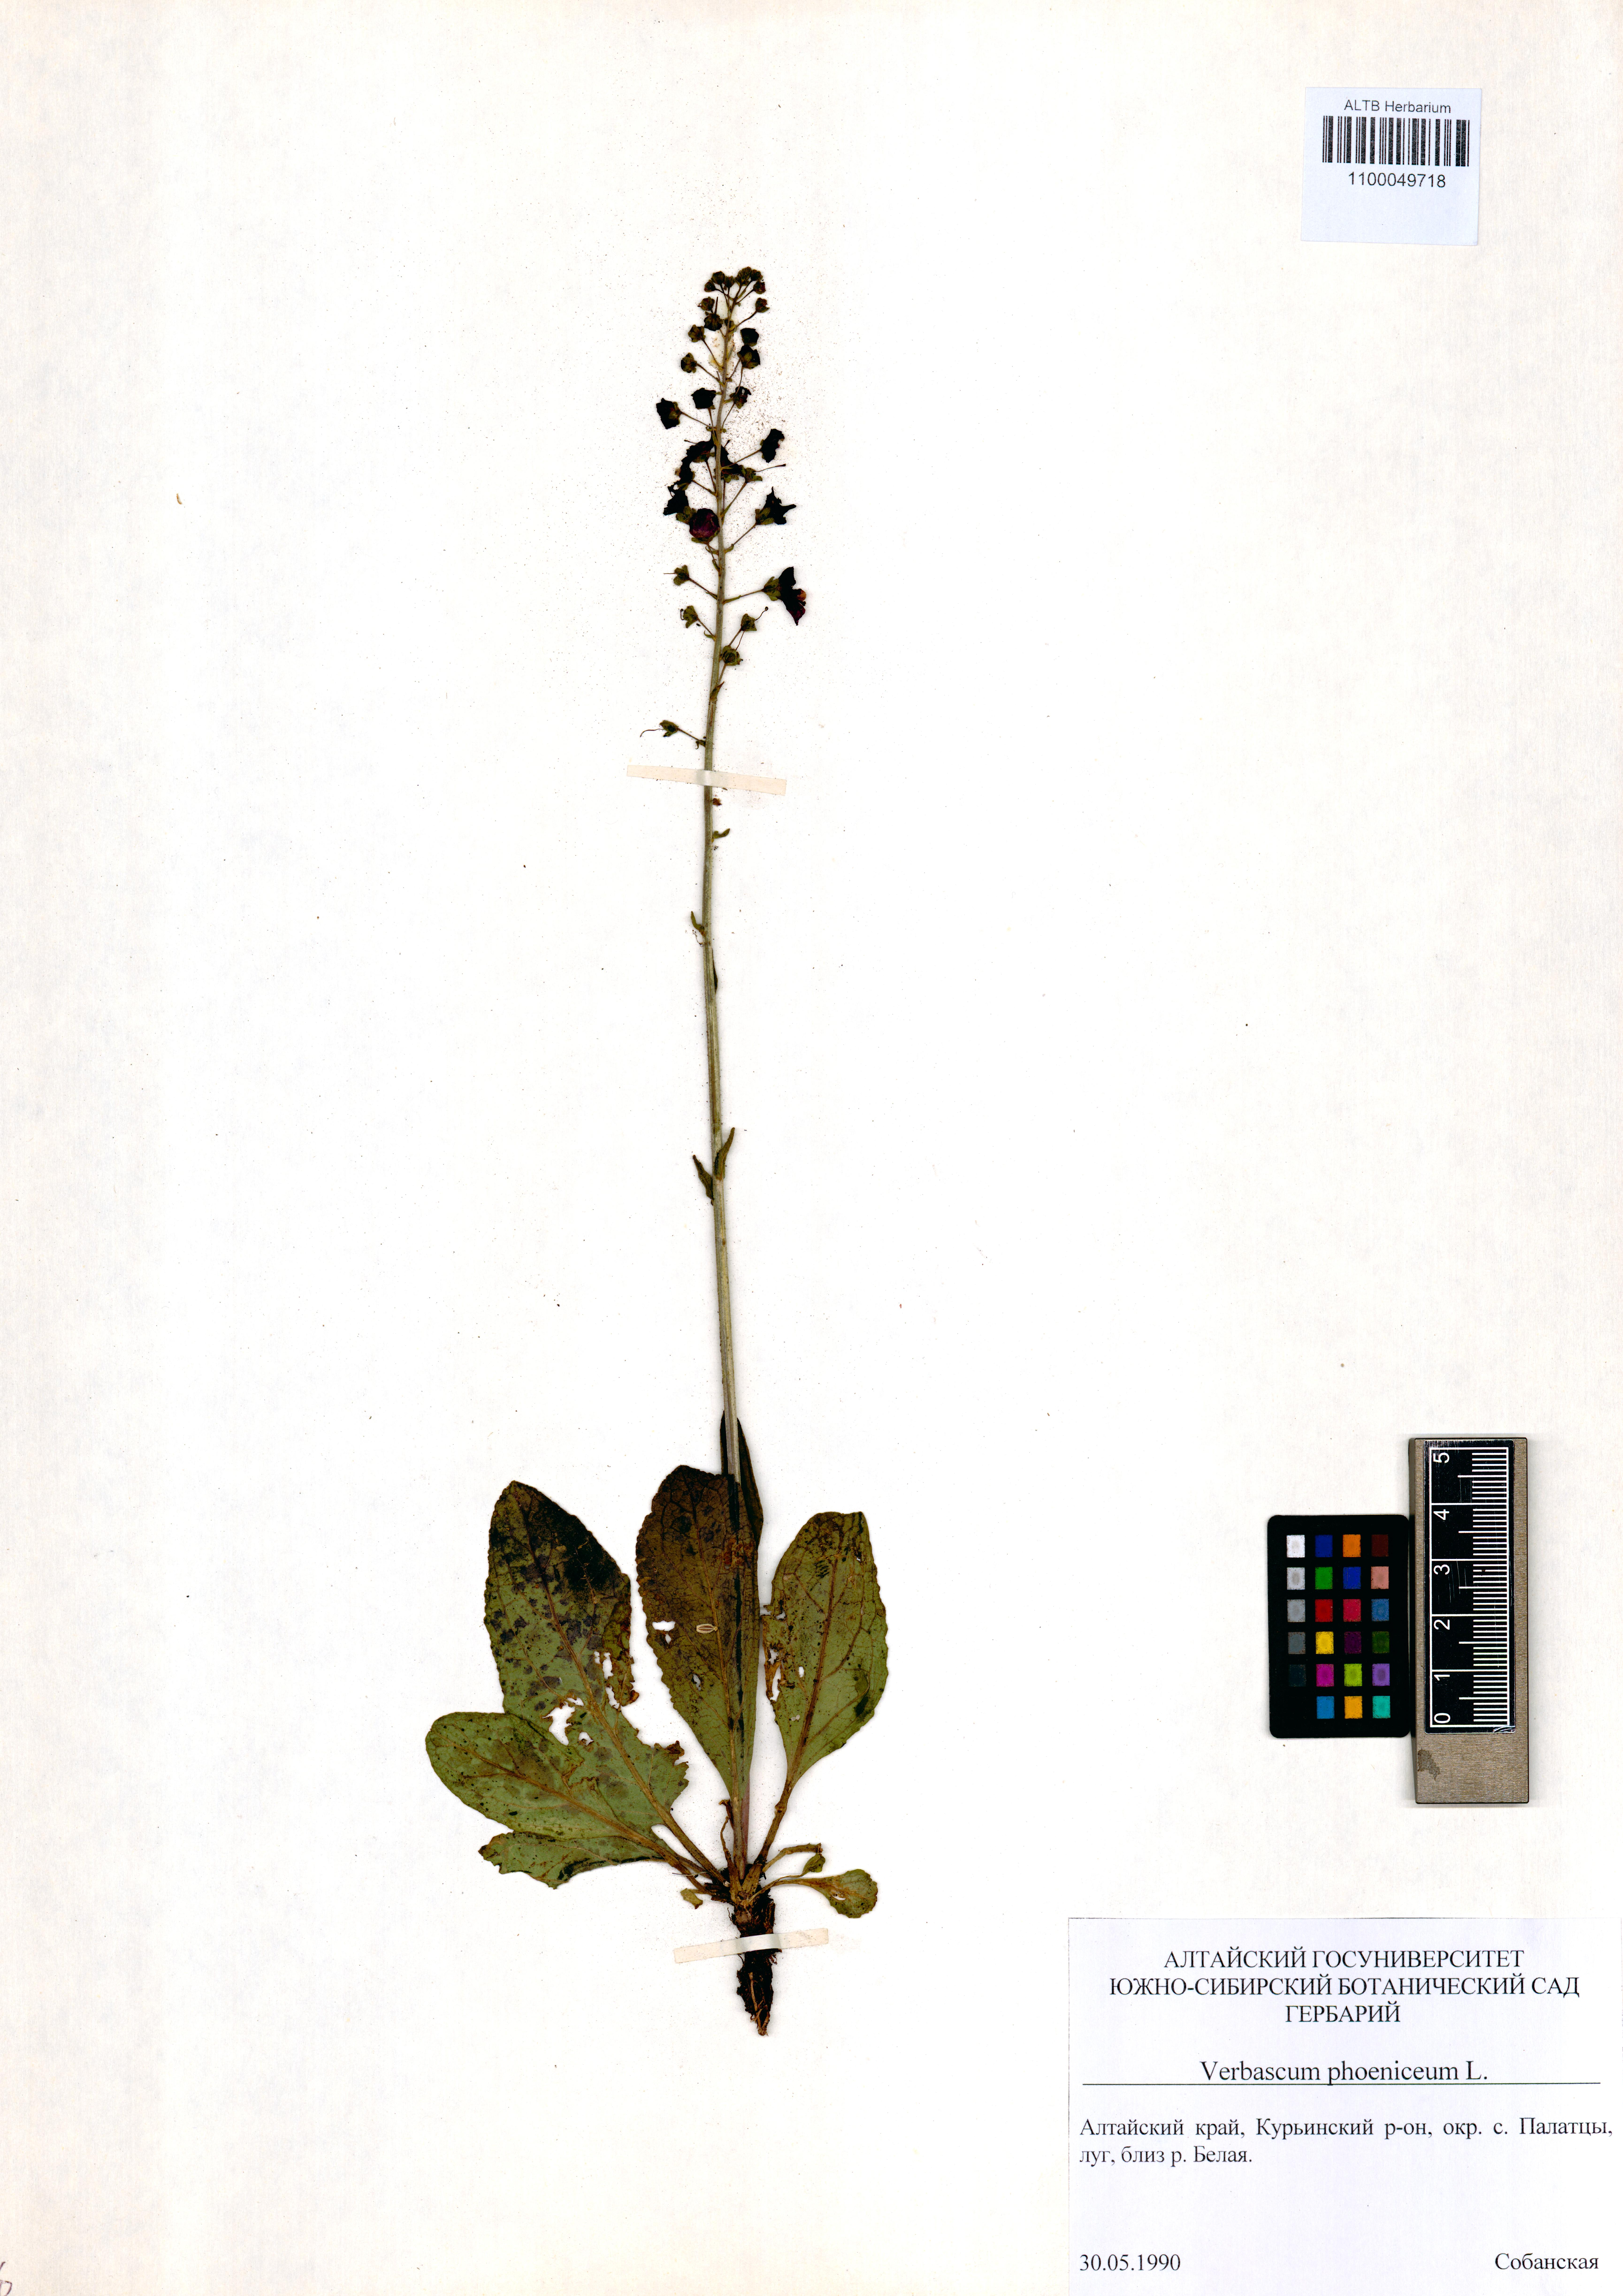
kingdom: Plantae
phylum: Tracheophyta
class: Magnoliopsida
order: Lamiales
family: Scrophulariaceae
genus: Verbascum
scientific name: Verbascum phoeniceum
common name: Purple mullein
